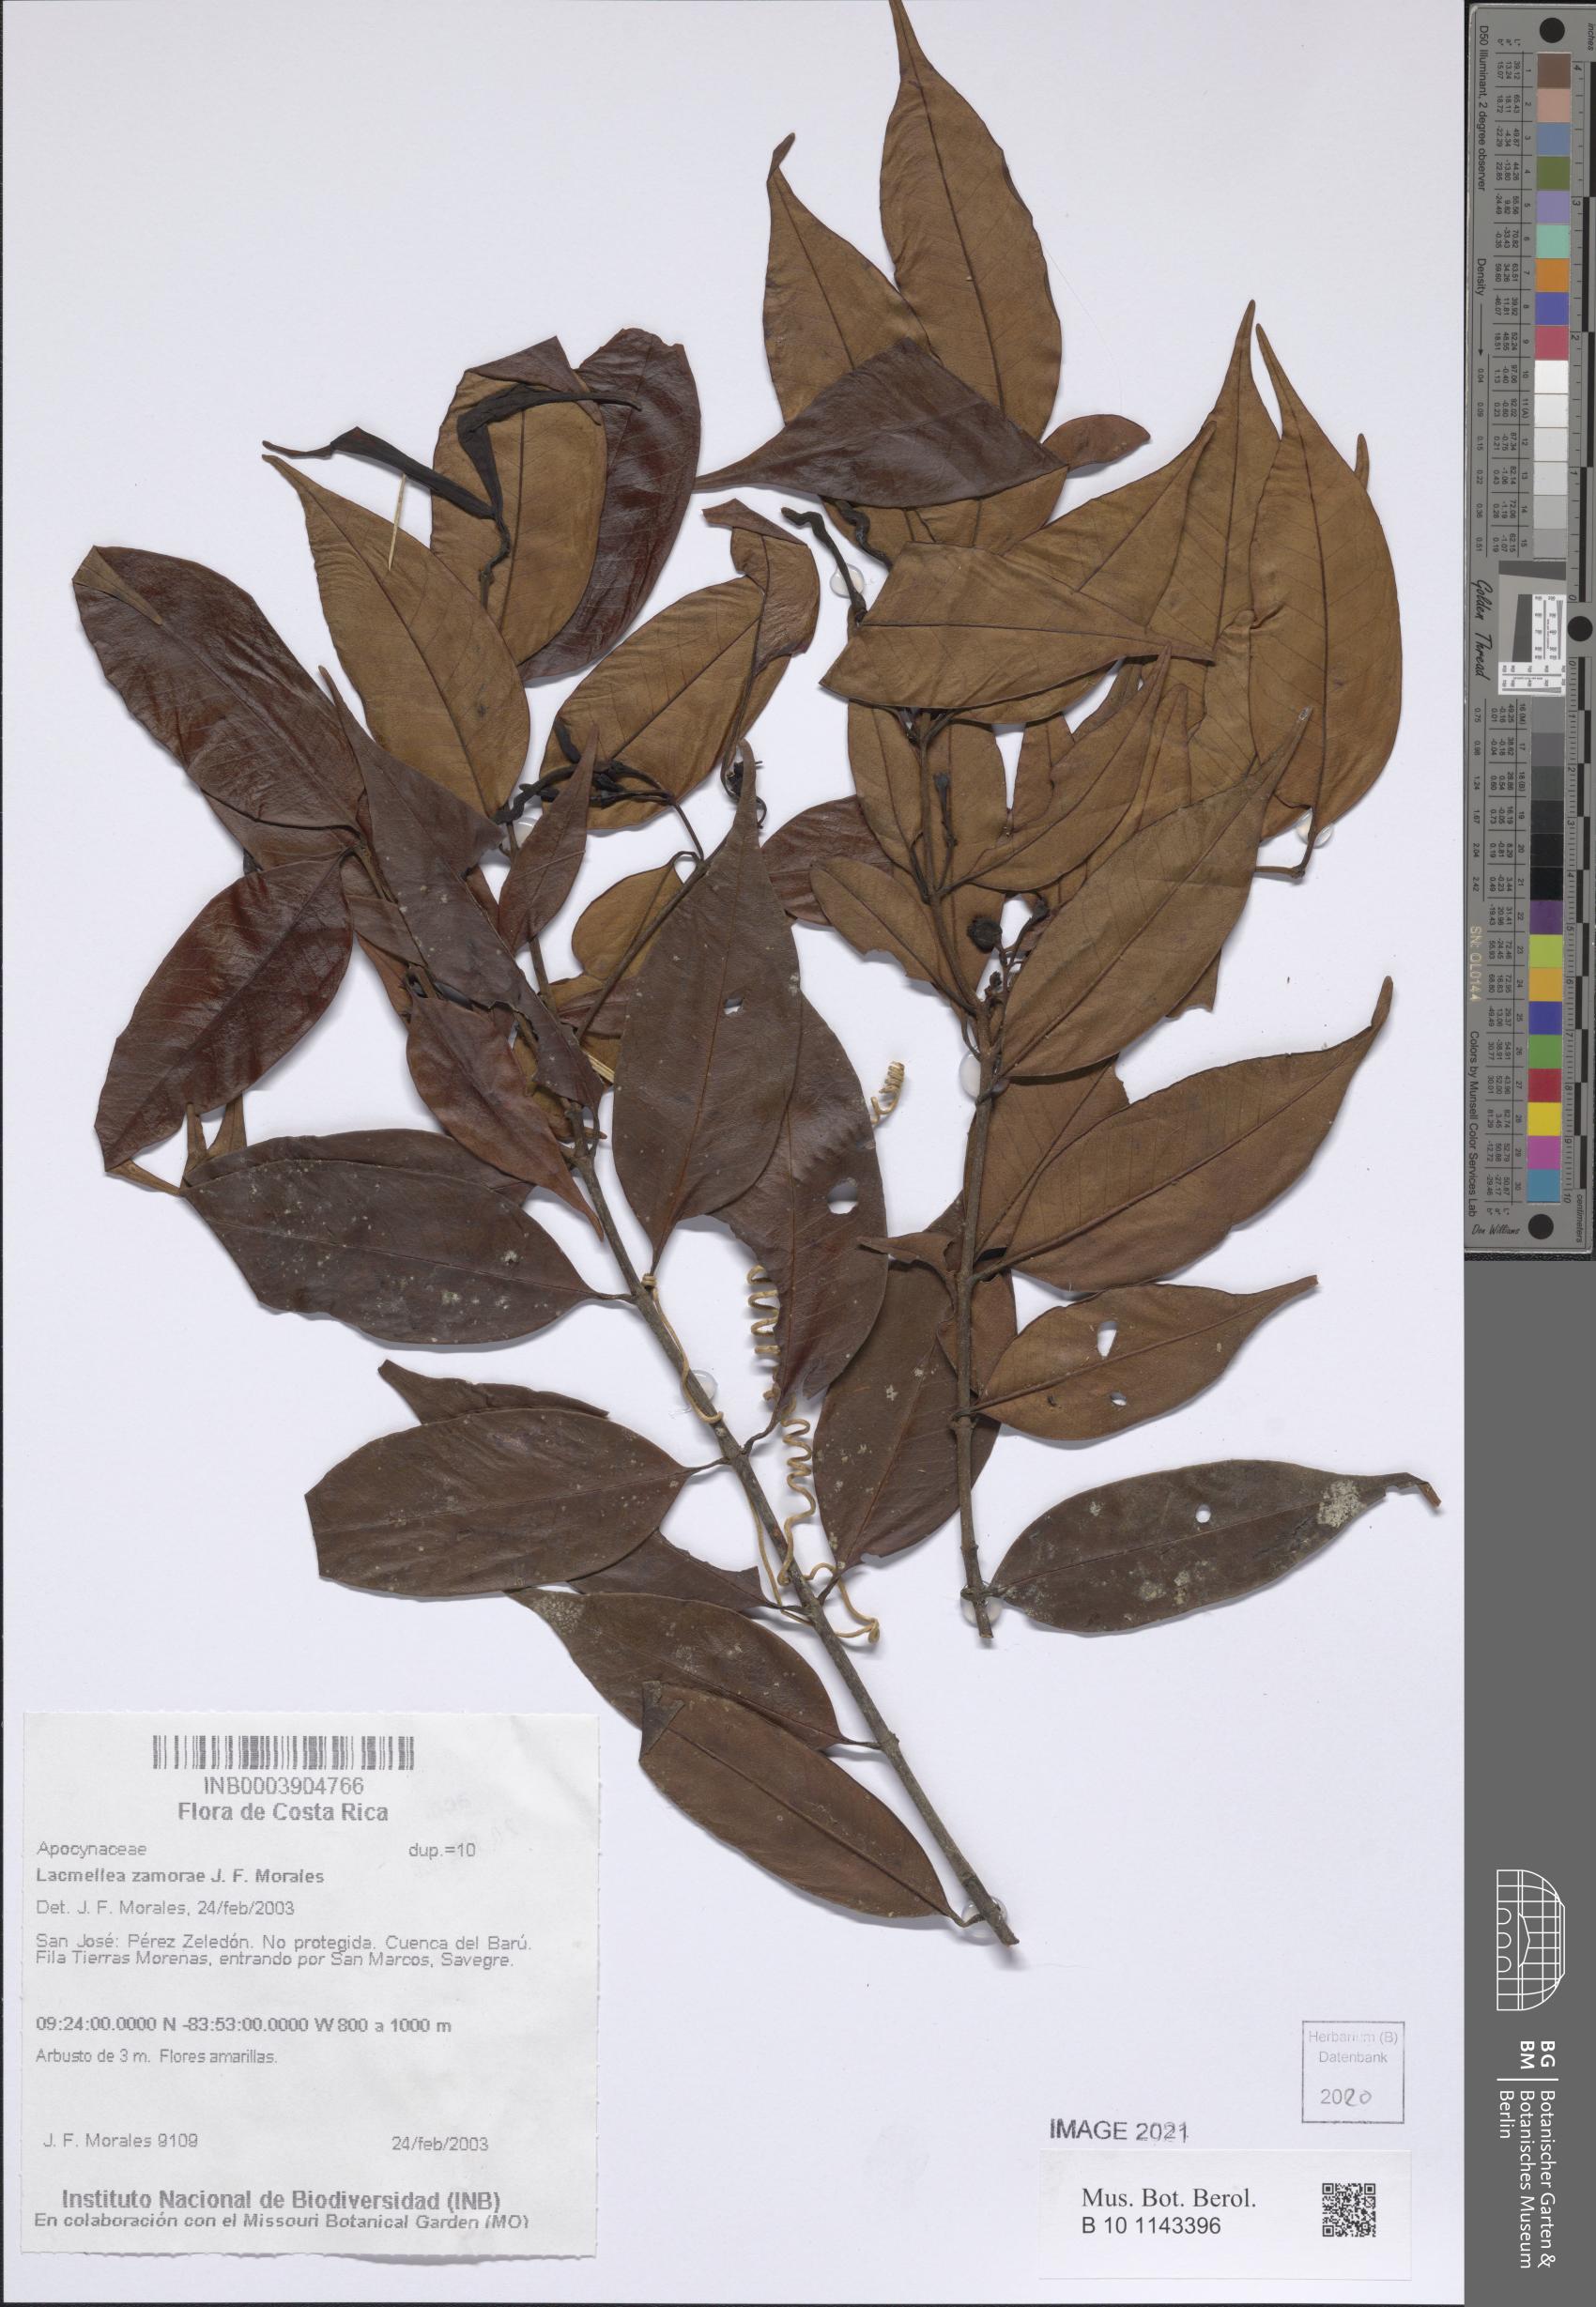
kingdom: Plantae
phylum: Tracheophyta
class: Magnoliopsida
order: Gentianales
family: Apocynaceae
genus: Lacmellea
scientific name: Lacmellea zamorae
